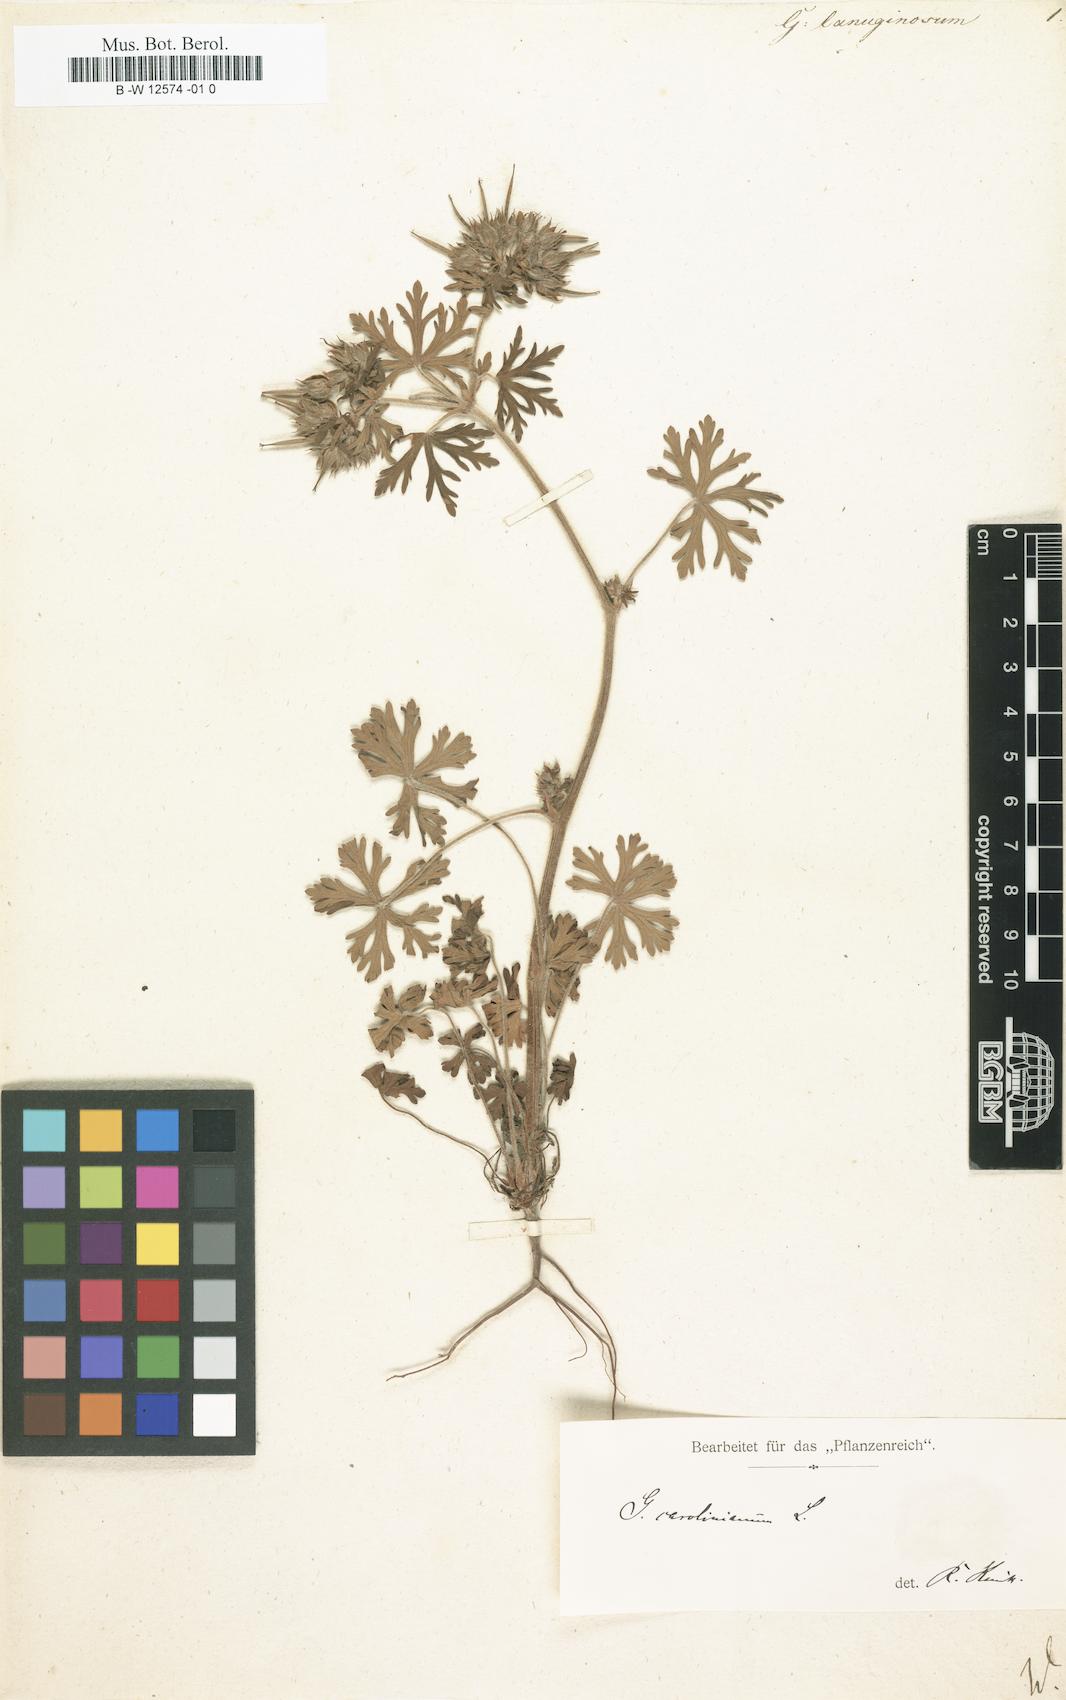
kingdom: Plantae
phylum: Tracheophyta
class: Magnoliopsida
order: Geraniales
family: Geraniaceae
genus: Geranium
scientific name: Geranium
